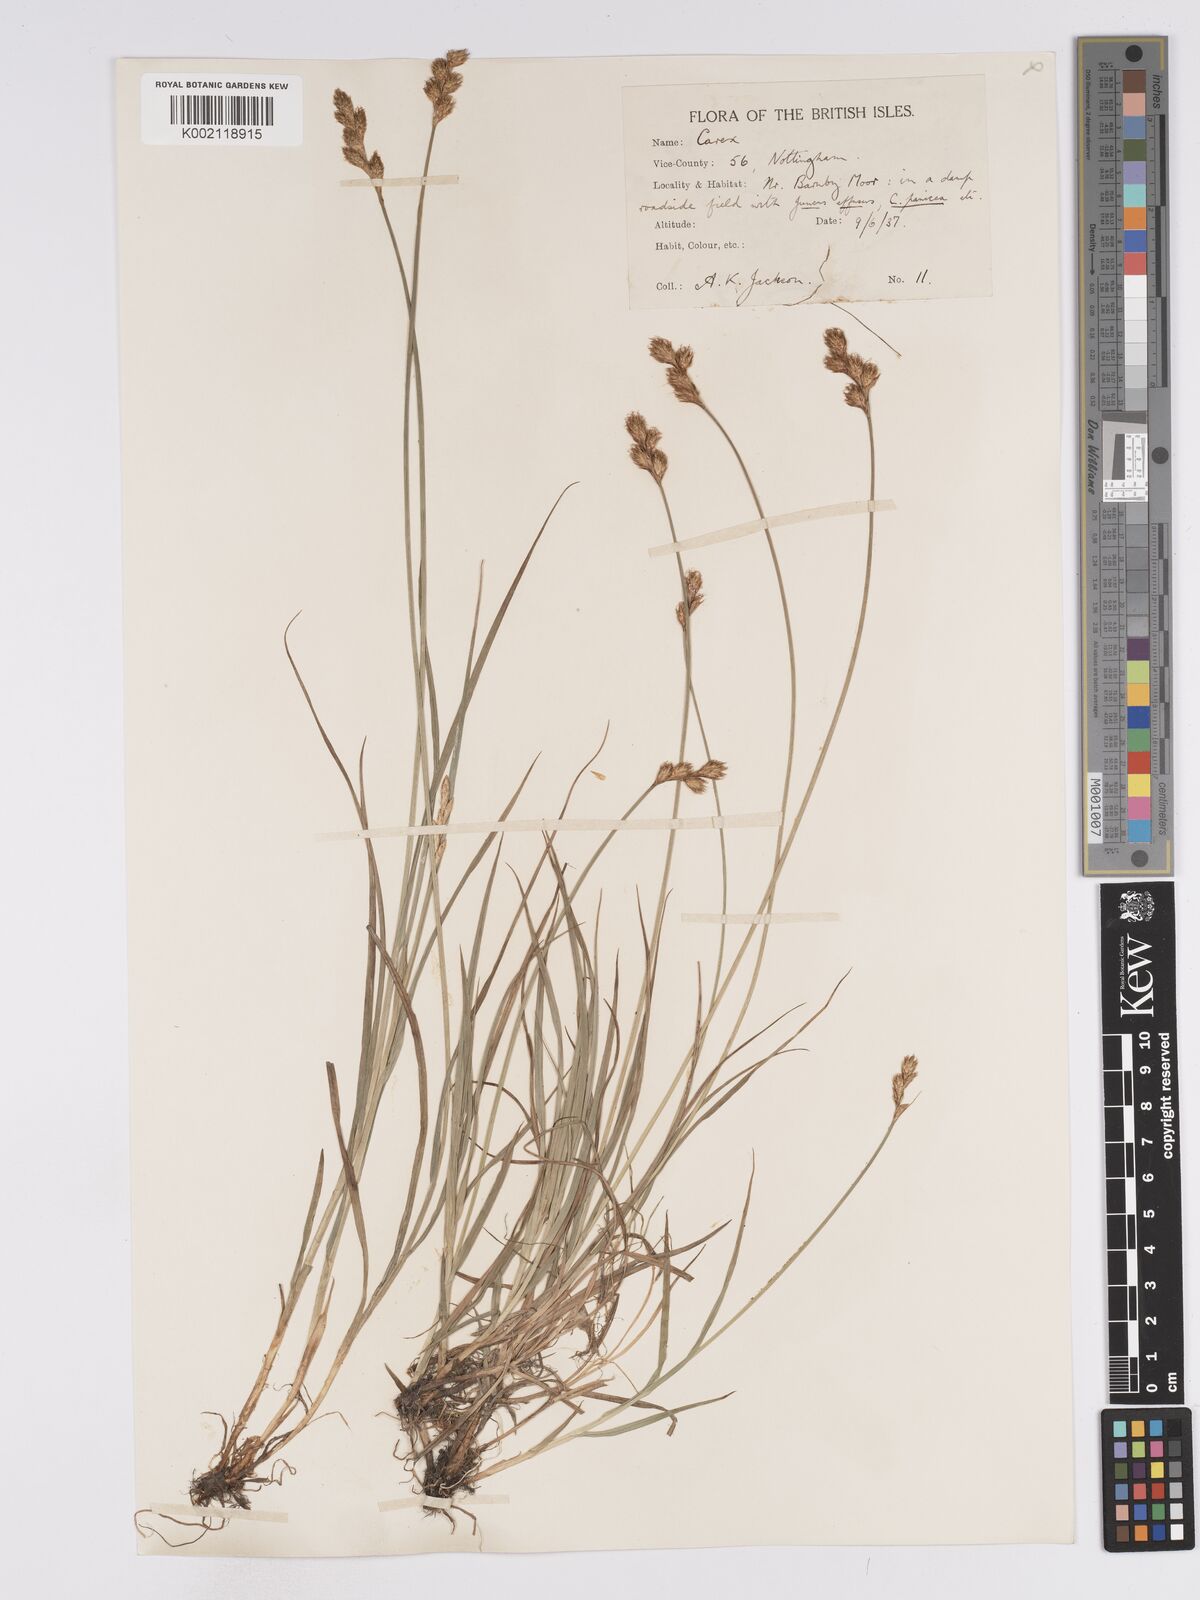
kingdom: Plantae
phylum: Tracheophyta
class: Liliopsida
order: Poales
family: Cyperaceae
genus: Carex
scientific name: Carex leporina
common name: Oval sedge
